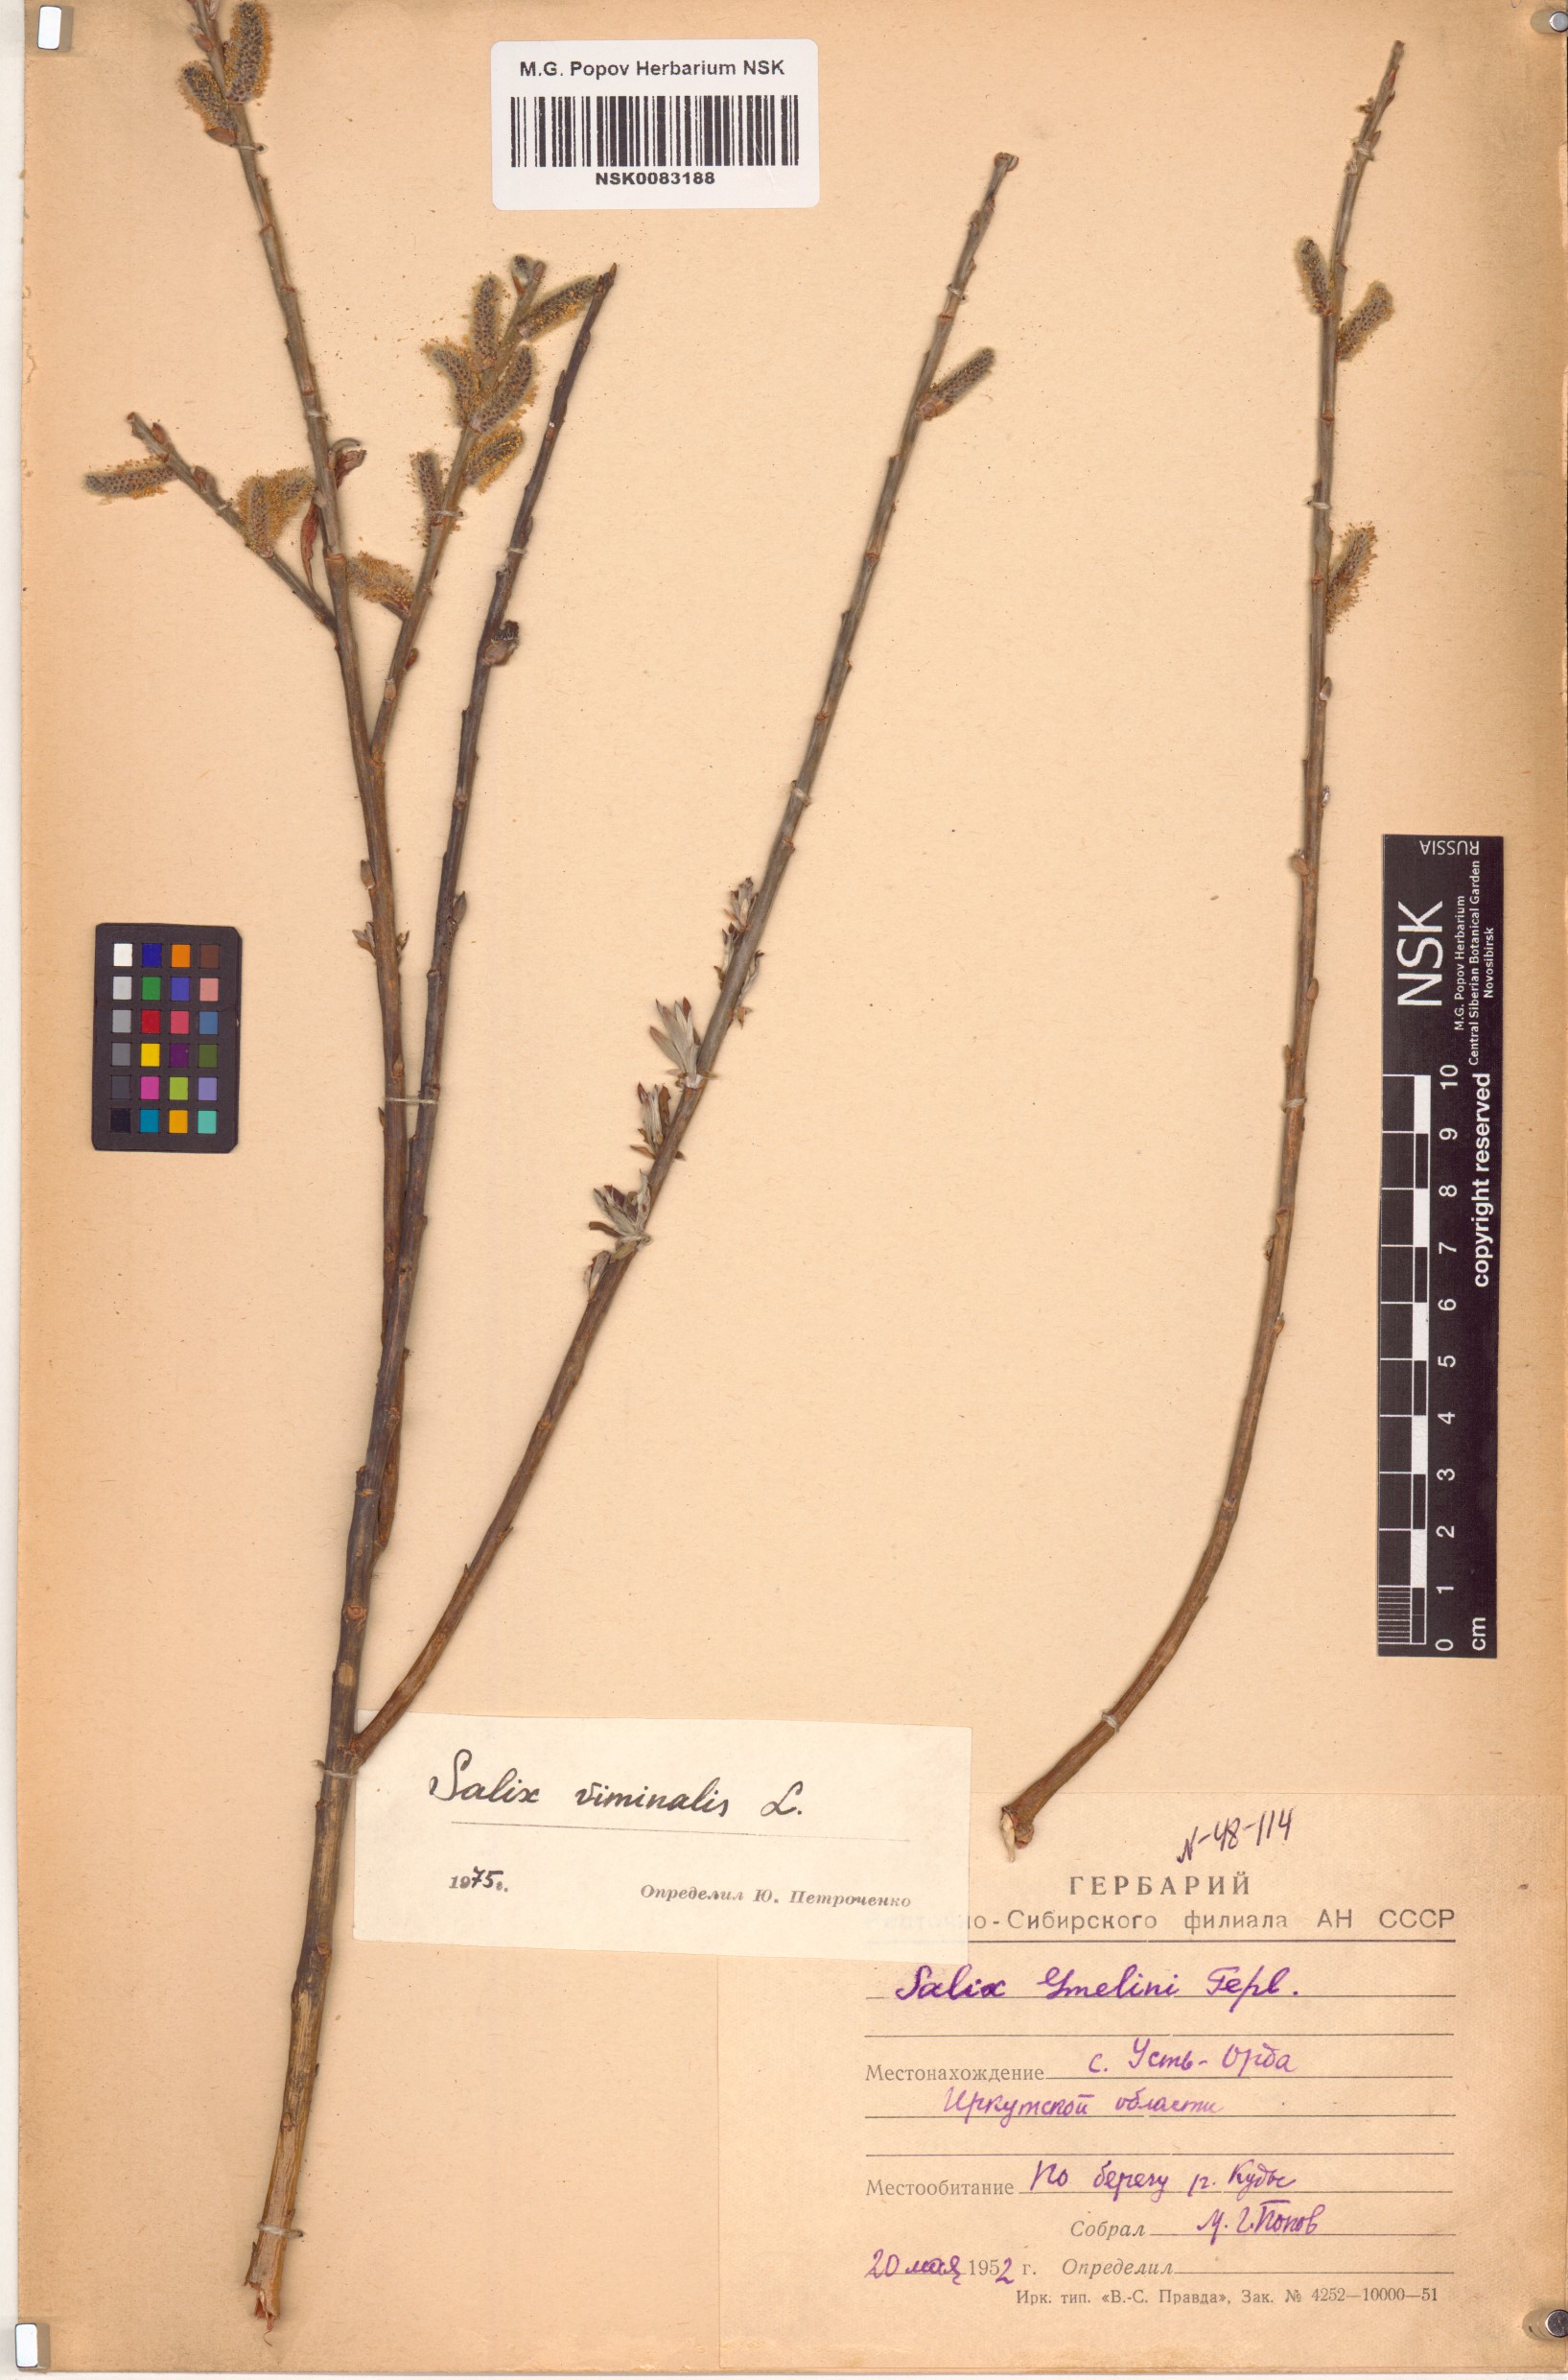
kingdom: Plantae
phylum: Tracheophyta
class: Magnoliopsida
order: Malpighiales
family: Salicaceae
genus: Salix
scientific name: Salix viminalis
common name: Osier
